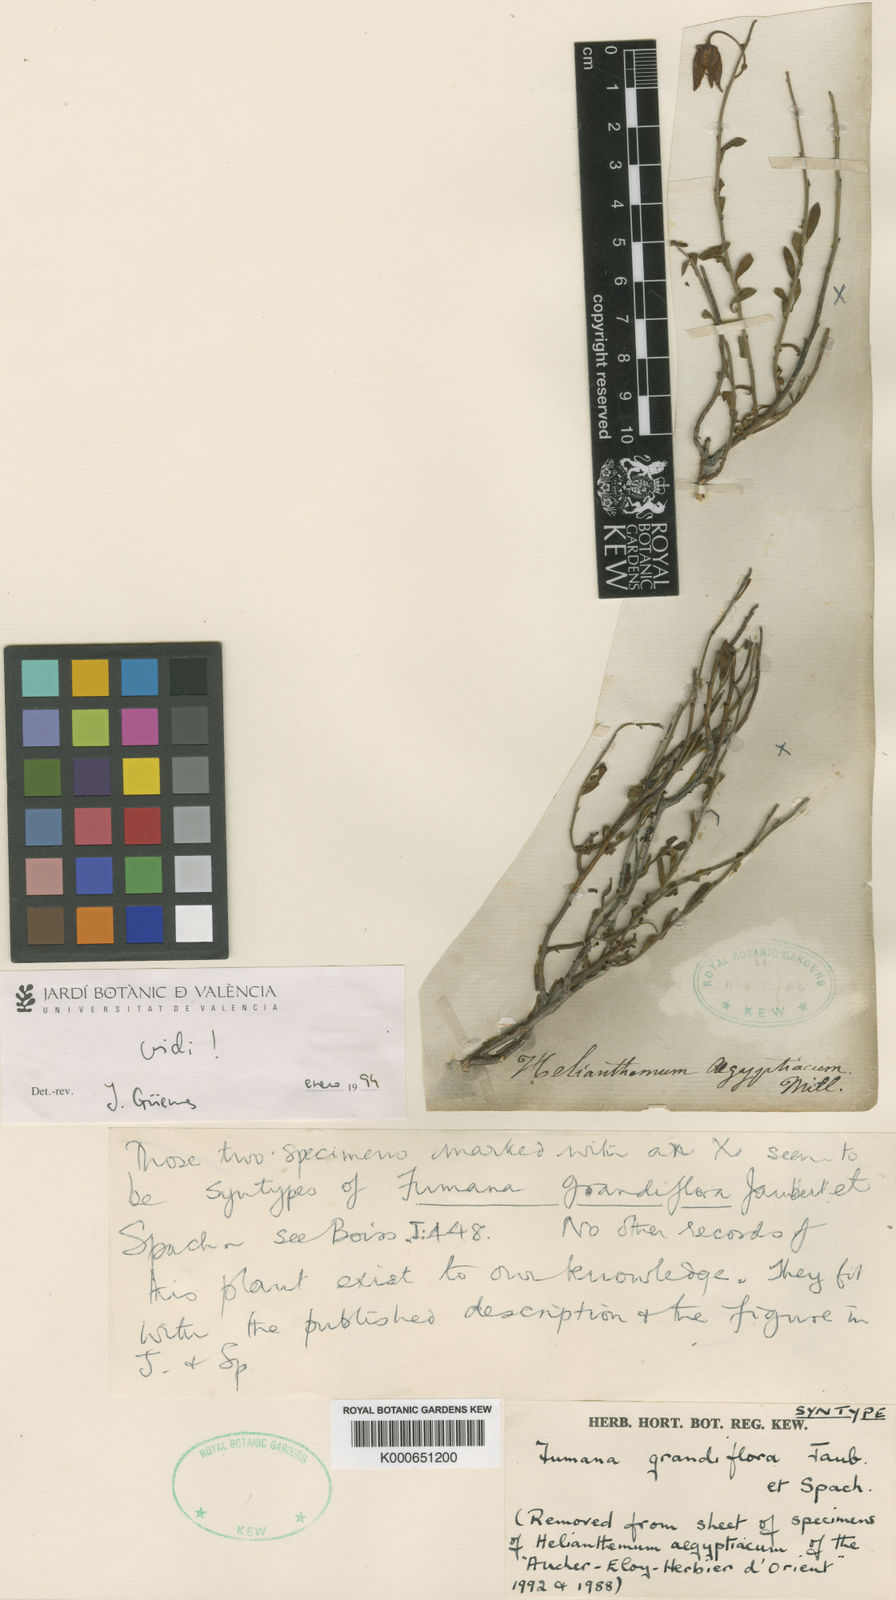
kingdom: Plantae
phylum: Tracheophyta
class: Magnoliopsida
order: Malvales
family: Cistaceae
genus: Fumana
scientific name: Fumana grandiflora
